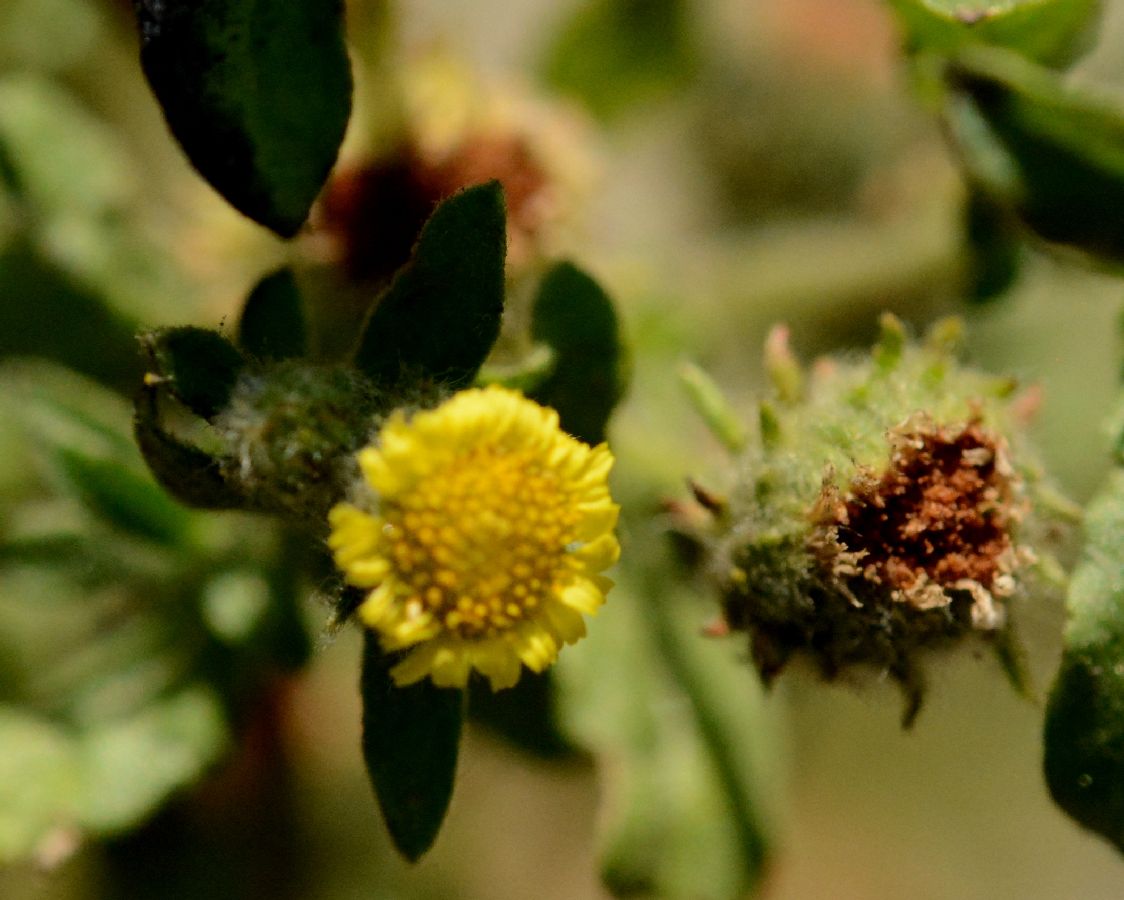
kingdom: Plantae
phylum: Tracheophyta
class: Magnoliopsida
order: Asterales
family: Asteraceae
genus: Pulicaria
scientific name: Pulicaria vulgaris
